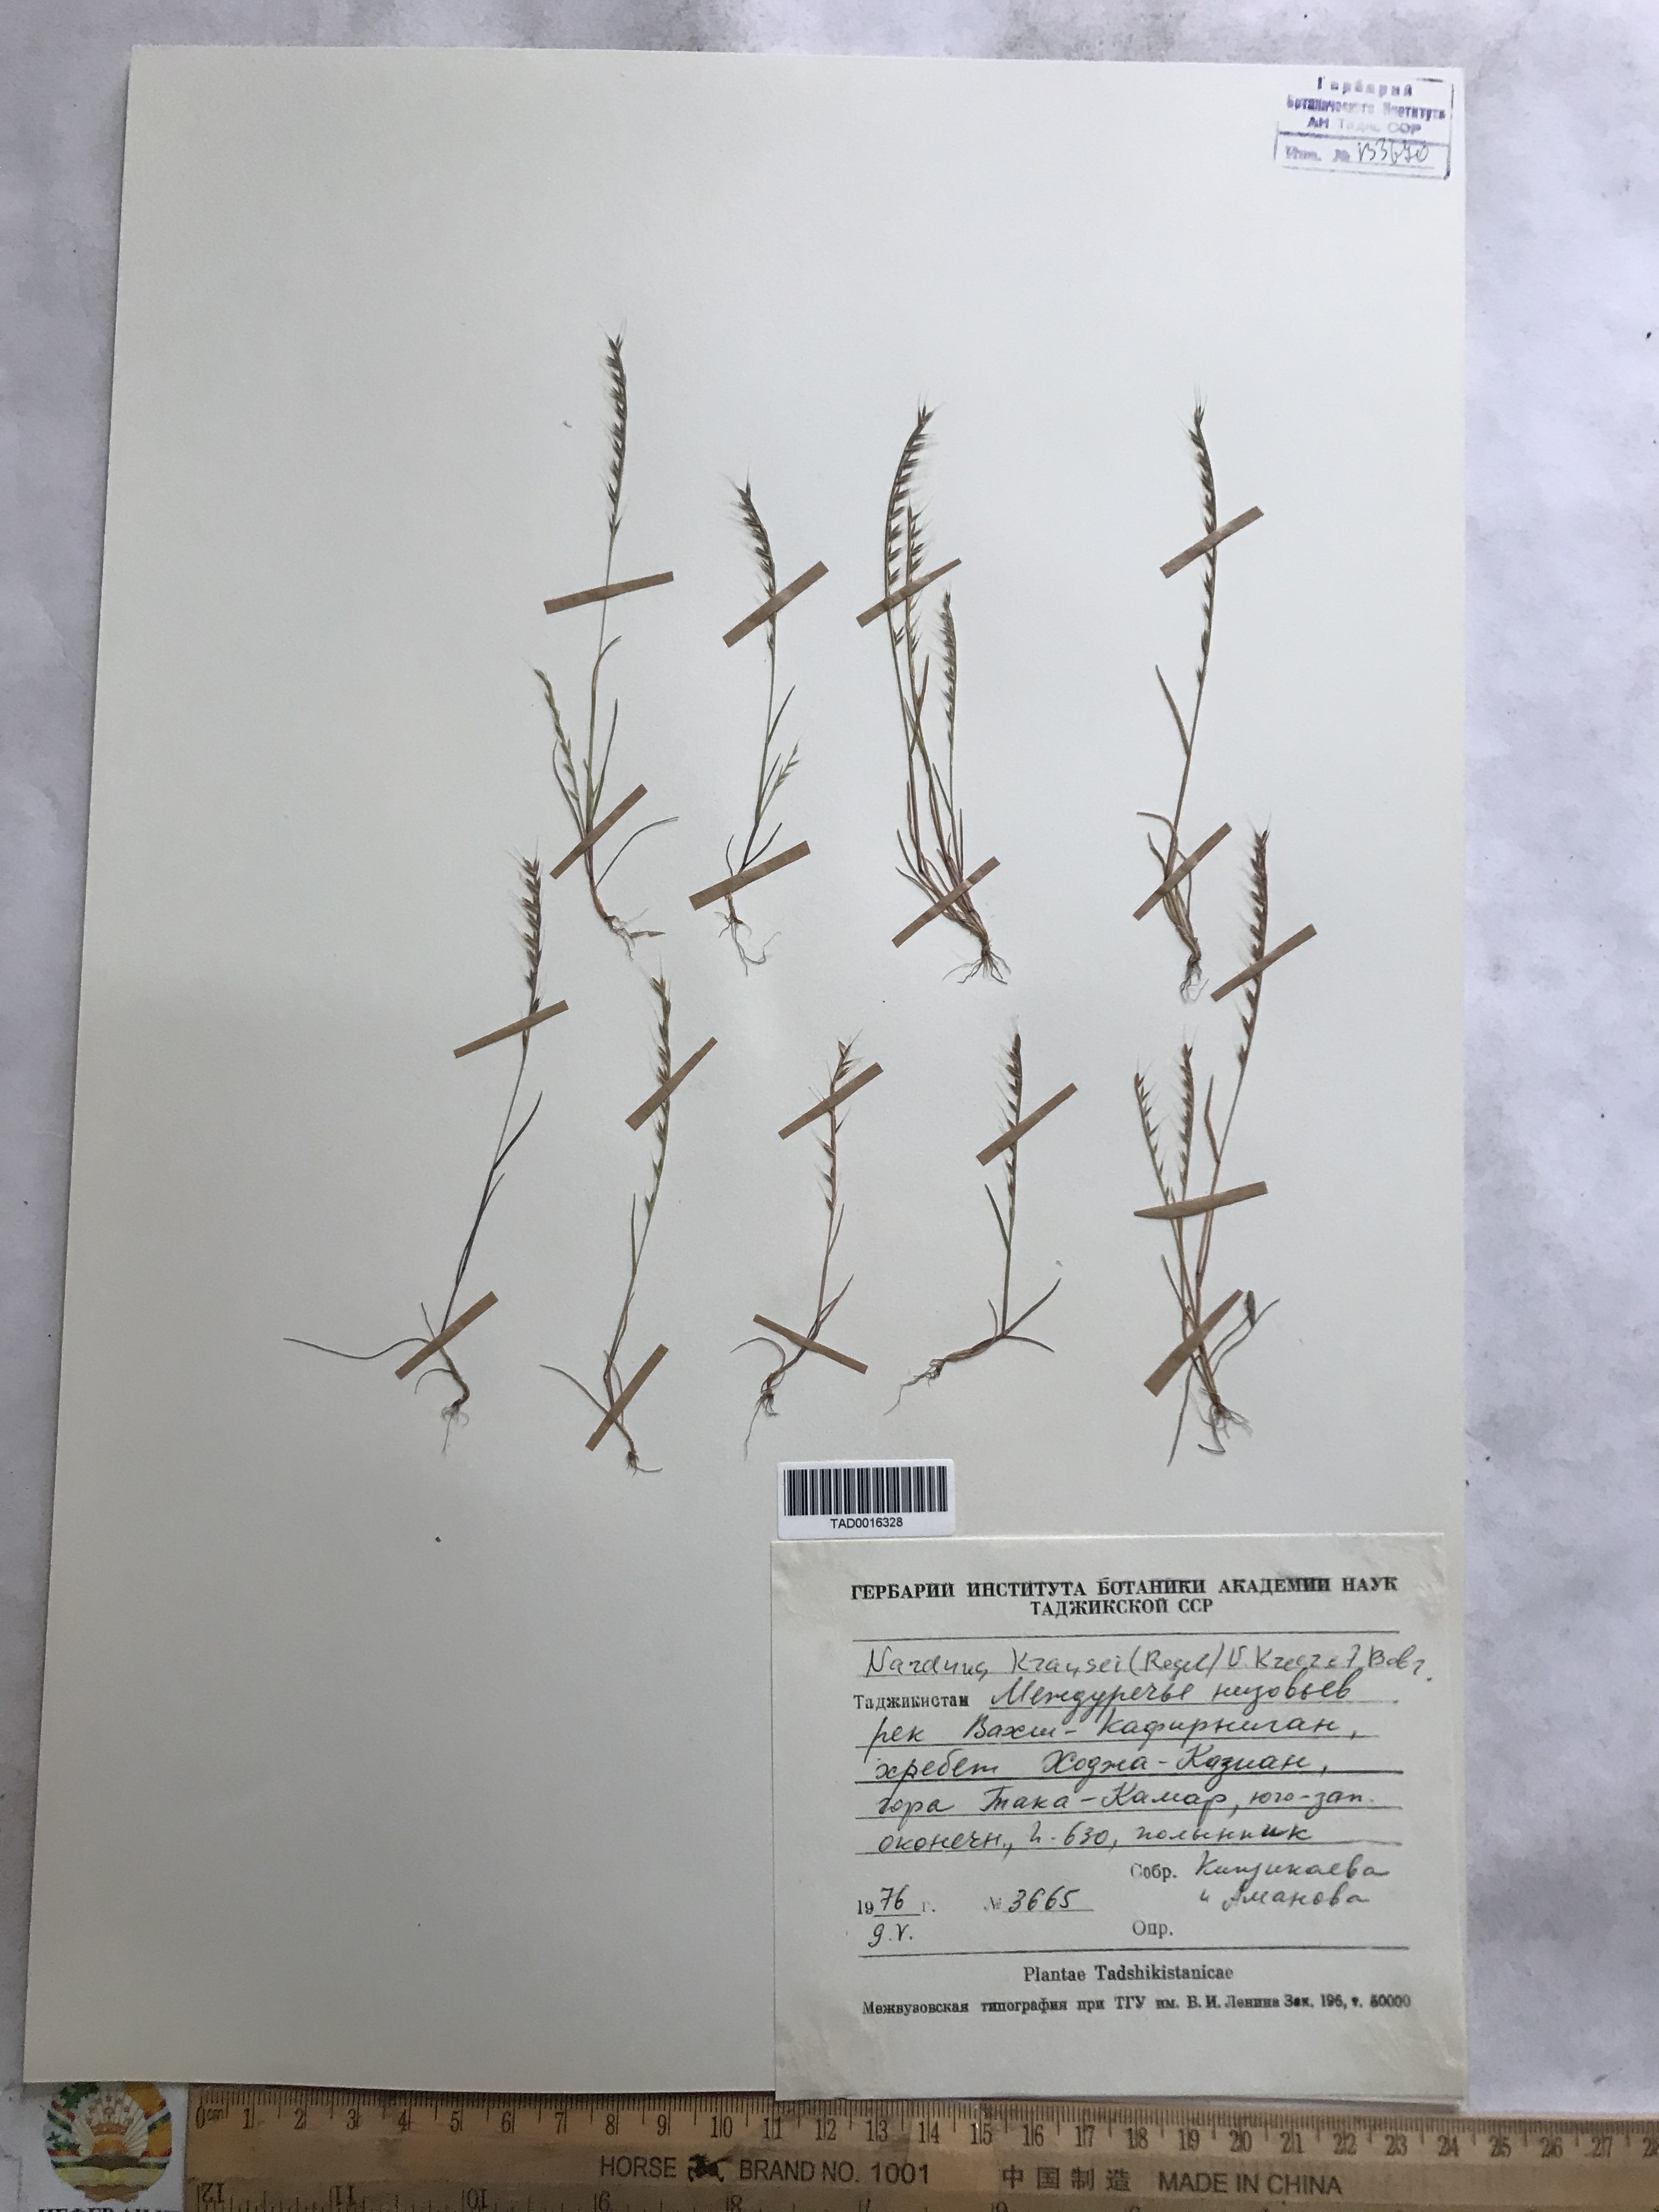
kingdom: Plantae
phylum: Tracheophyta
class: Liliopsida
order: Poales
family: Poaceae
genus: Festuca
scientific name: Festuca maritima
